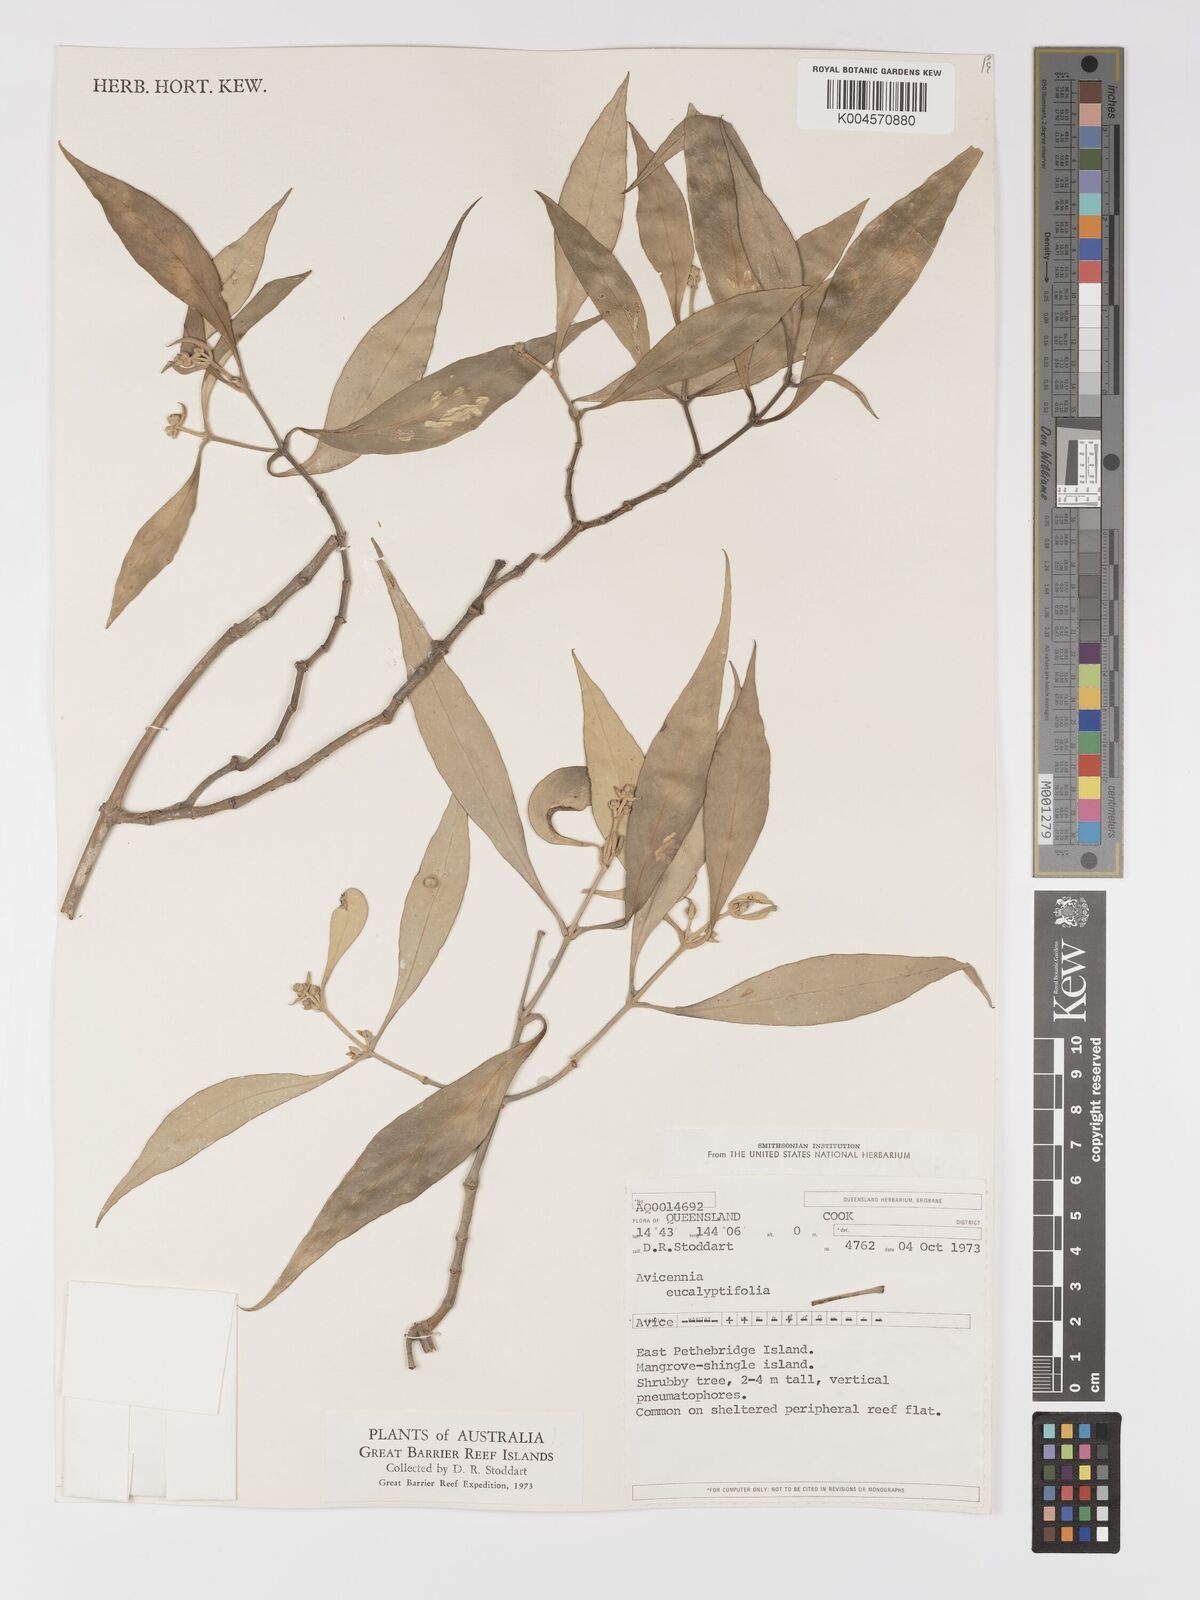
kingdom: Plantae
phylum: Tracheophyta
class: Magnoliopsida
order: Lamiales
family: Acanthaceae
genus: Avicennia
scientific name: Avicennia marina
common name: Gray mangrove
